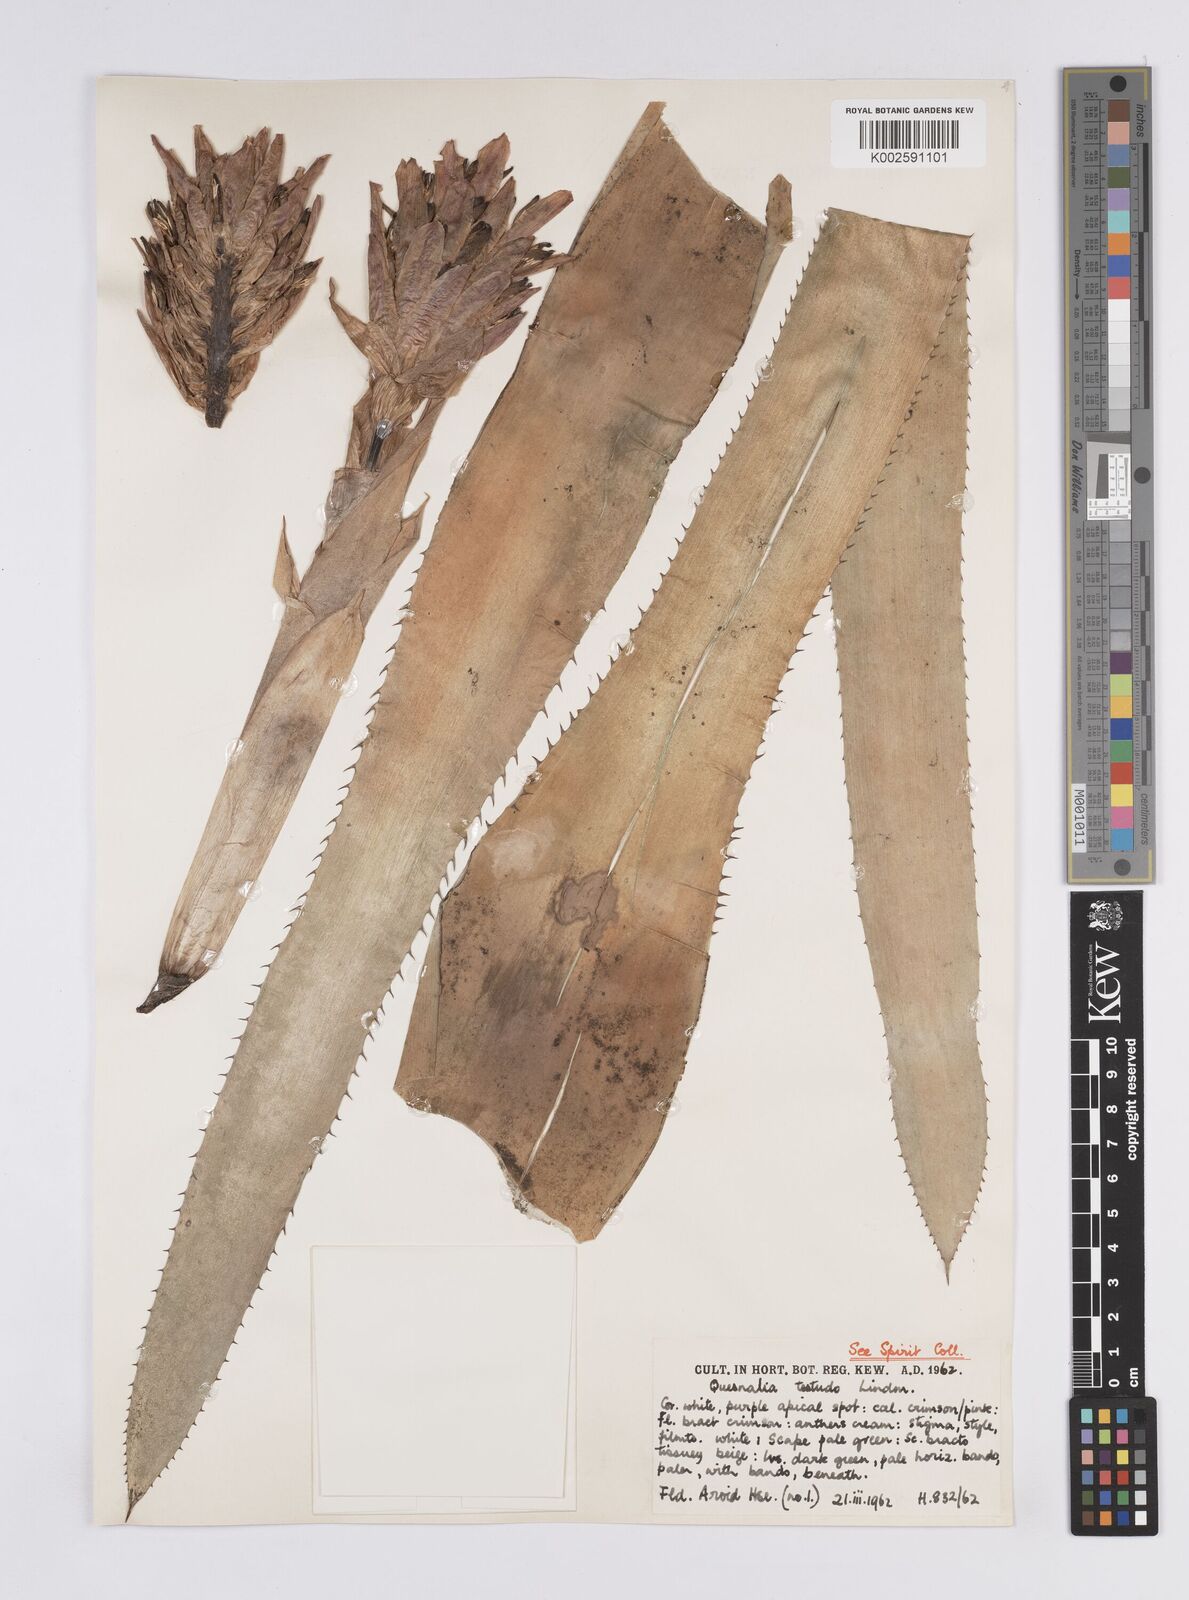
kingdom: Plantae
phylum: Tracheophyta
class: Liliopsida
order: Poales
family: Bromeliaceae
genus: Quesnelia
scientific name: Quesnelia testudo
